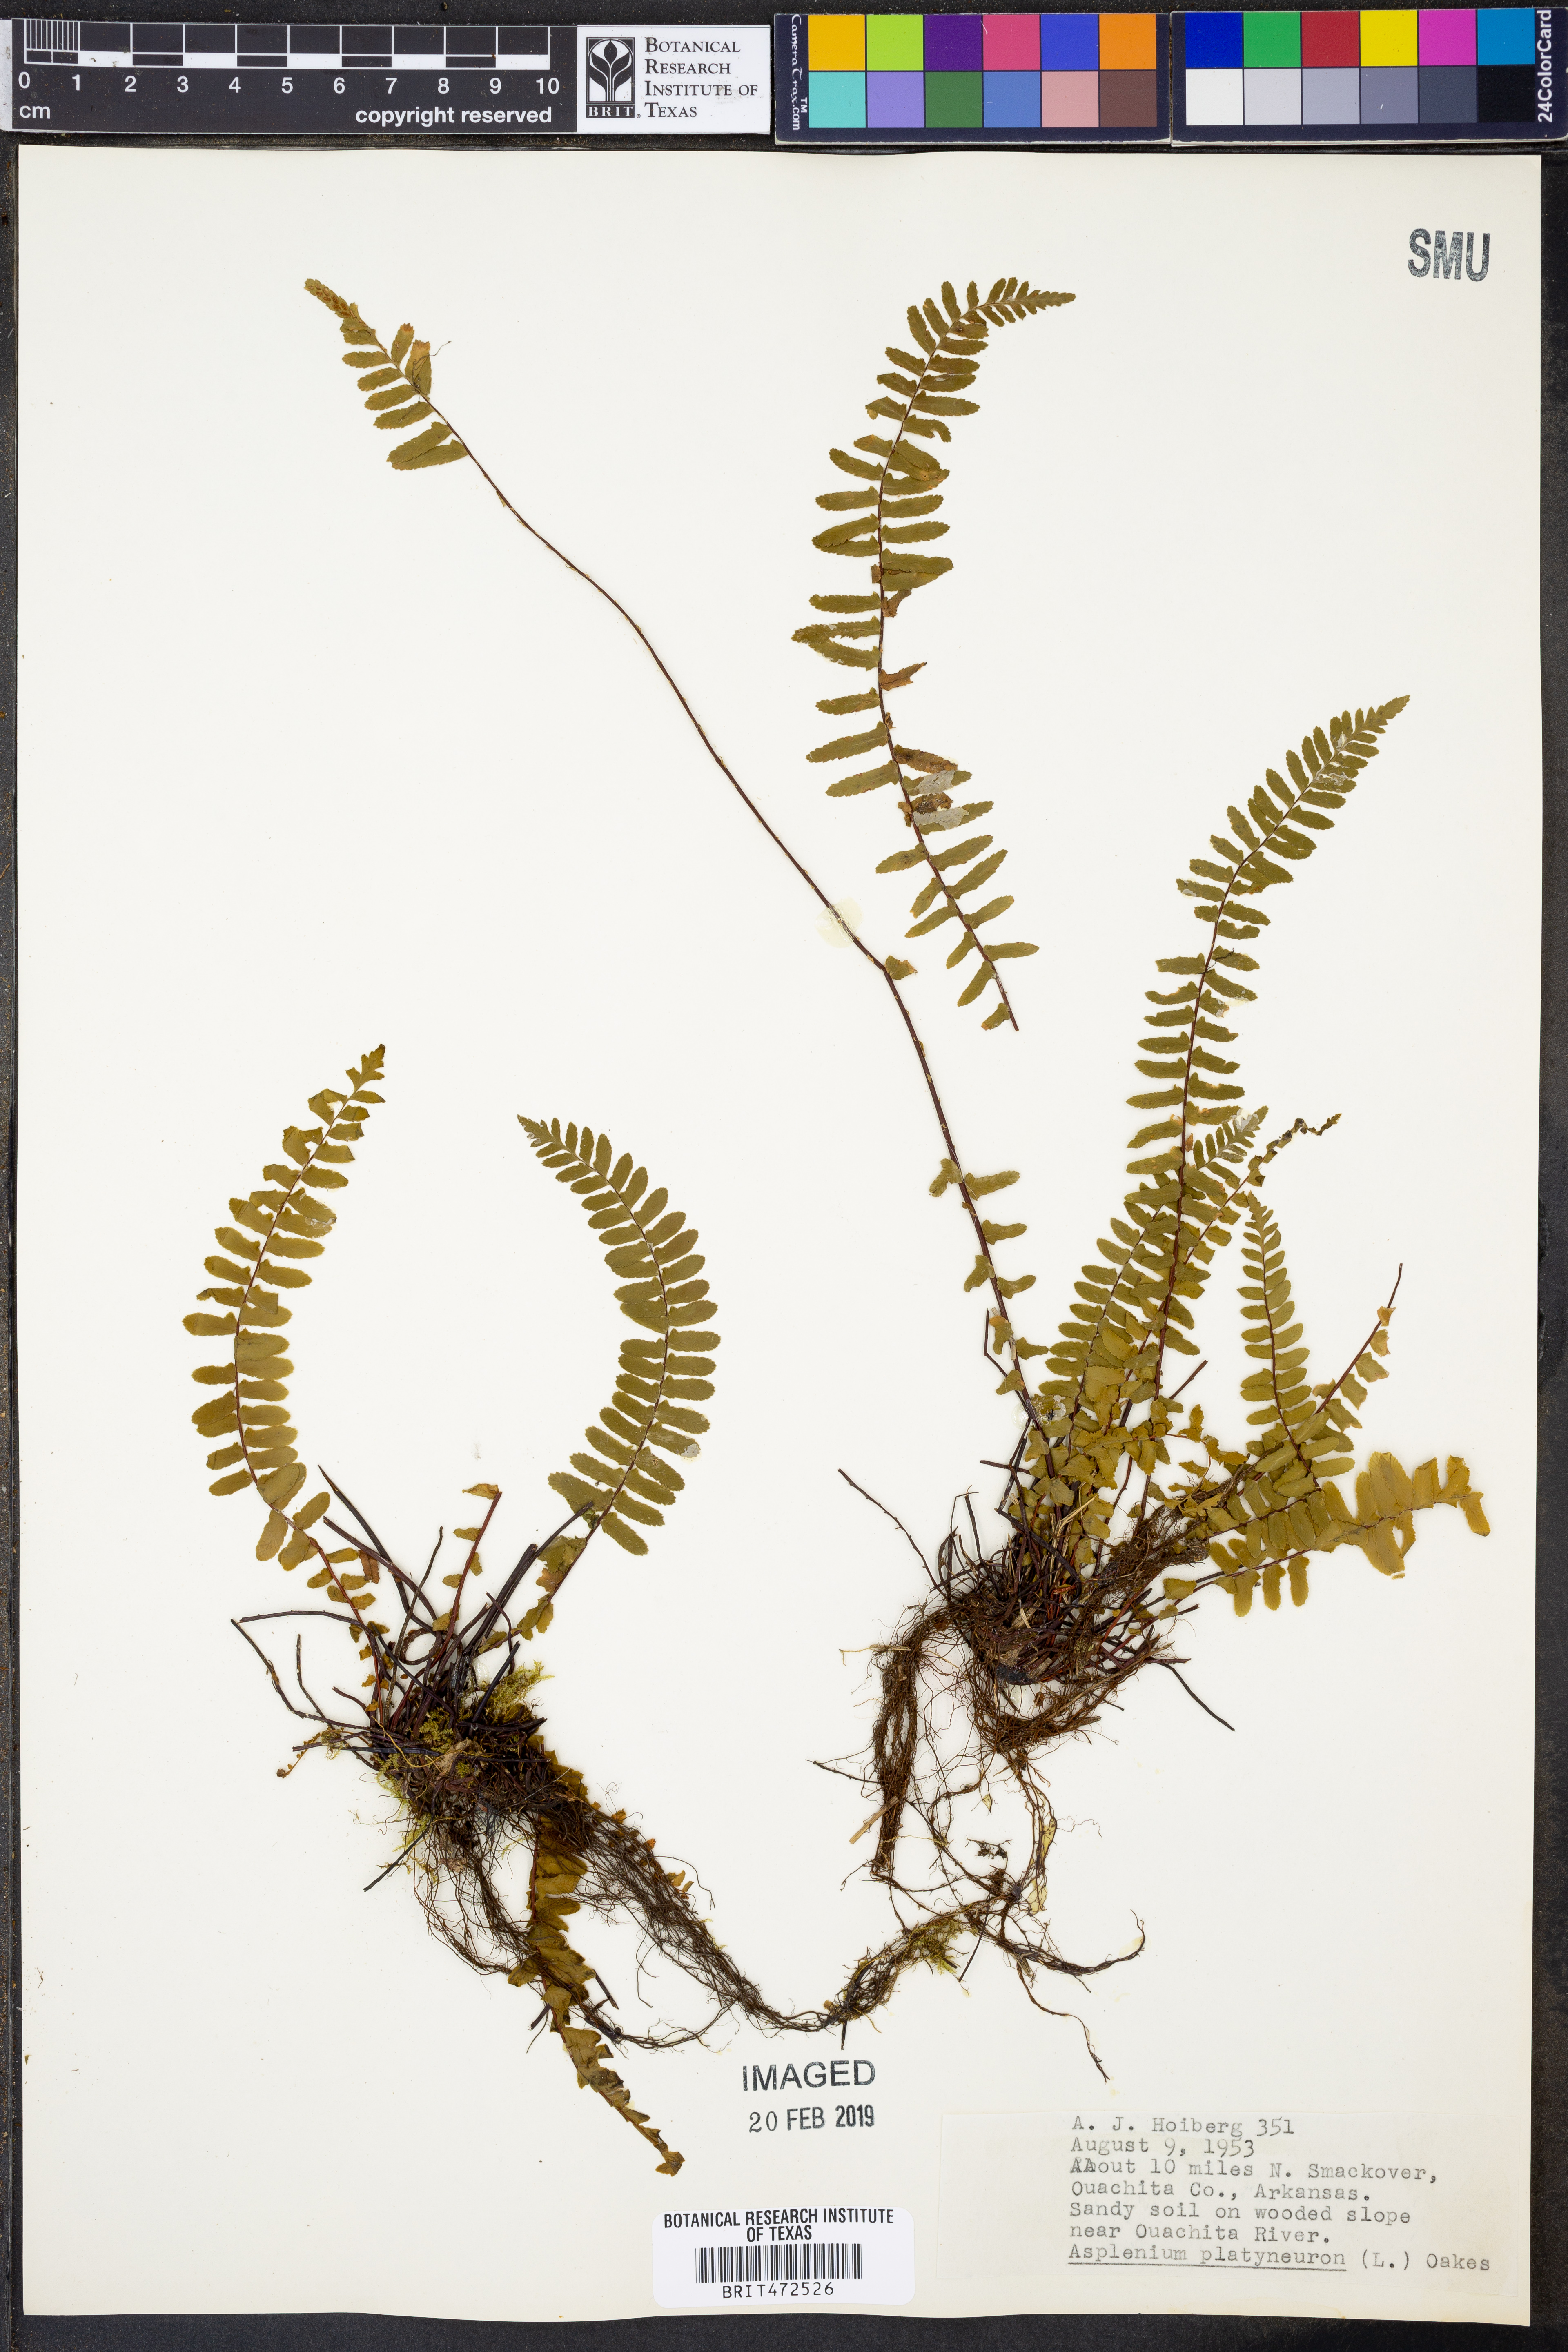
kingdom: Plantae
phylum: Tracheophyta
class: Polypodiopsida
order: Polypodiales
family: Aspleniaceae
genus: Asplenium
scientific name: Asplenium platyneuron
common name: Ebony spleenwort
